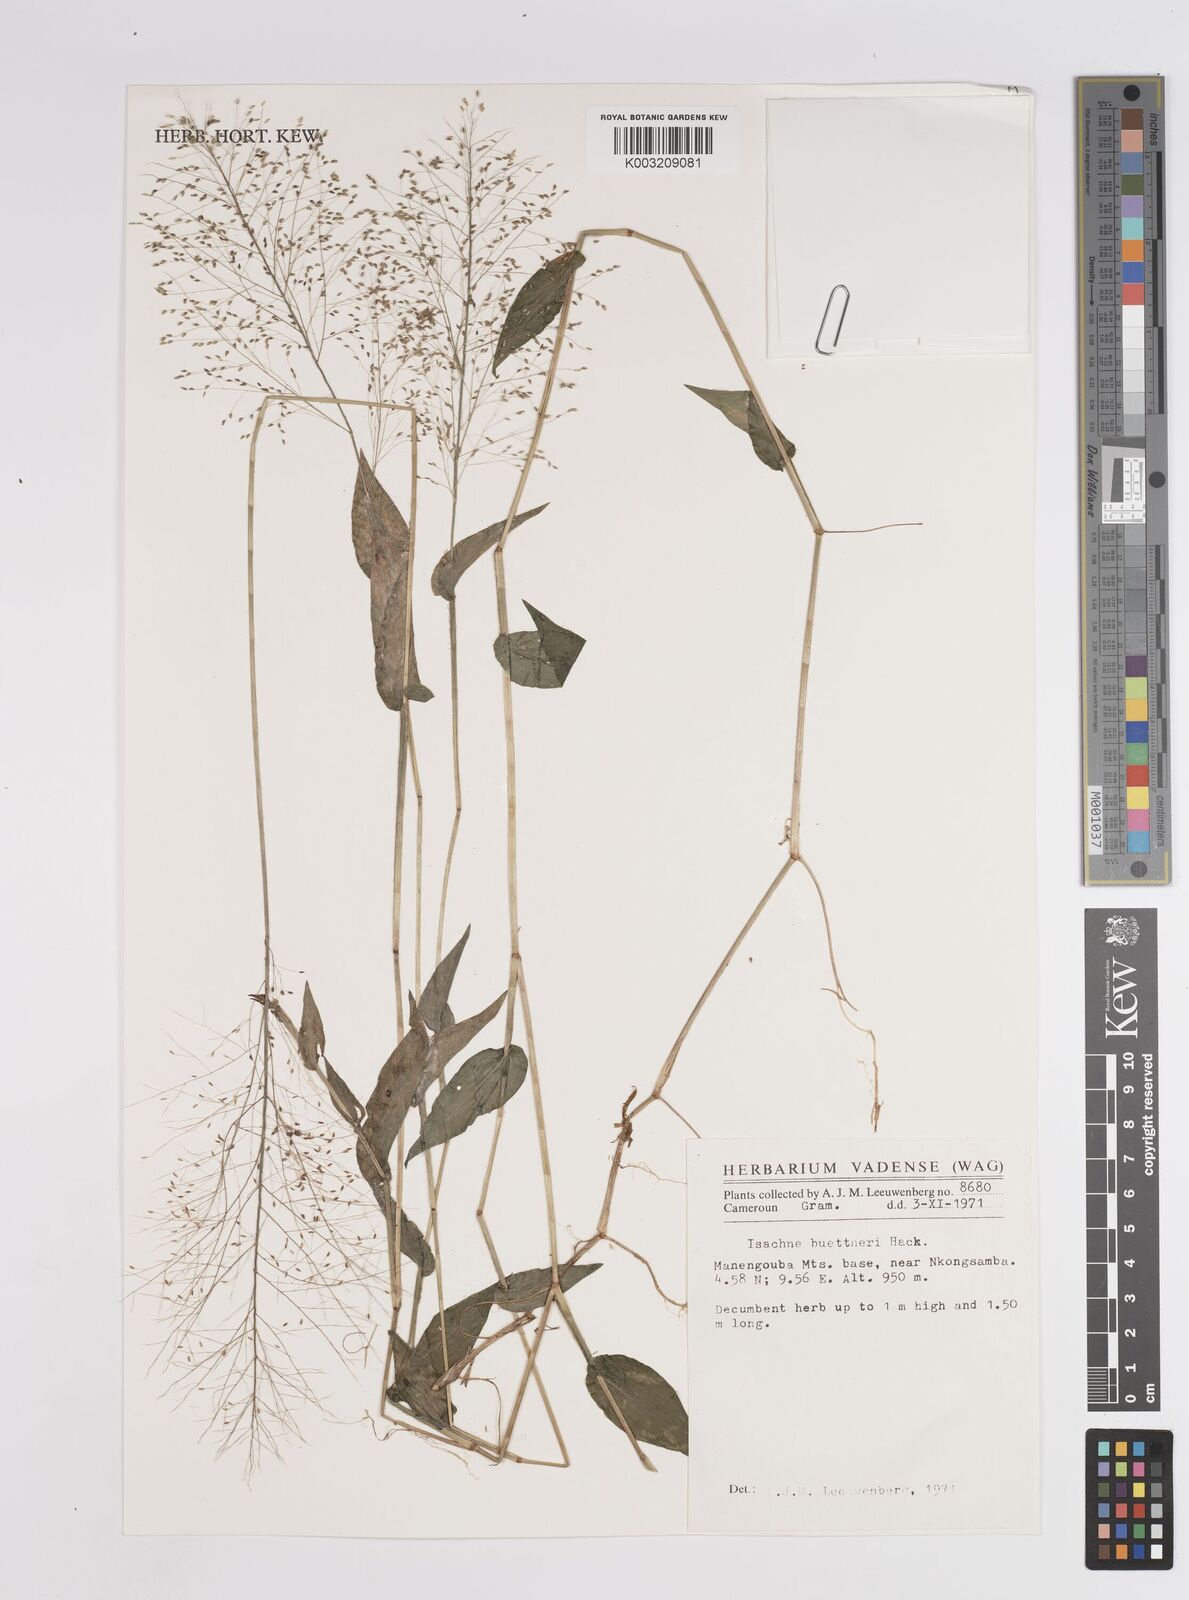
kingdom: Plantae
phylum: Tracheophyta
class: Liliopsida
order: Poales
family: Poaceae
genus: Panicum
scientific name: Panicum brevifolium
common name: Shortleaf panic grass
